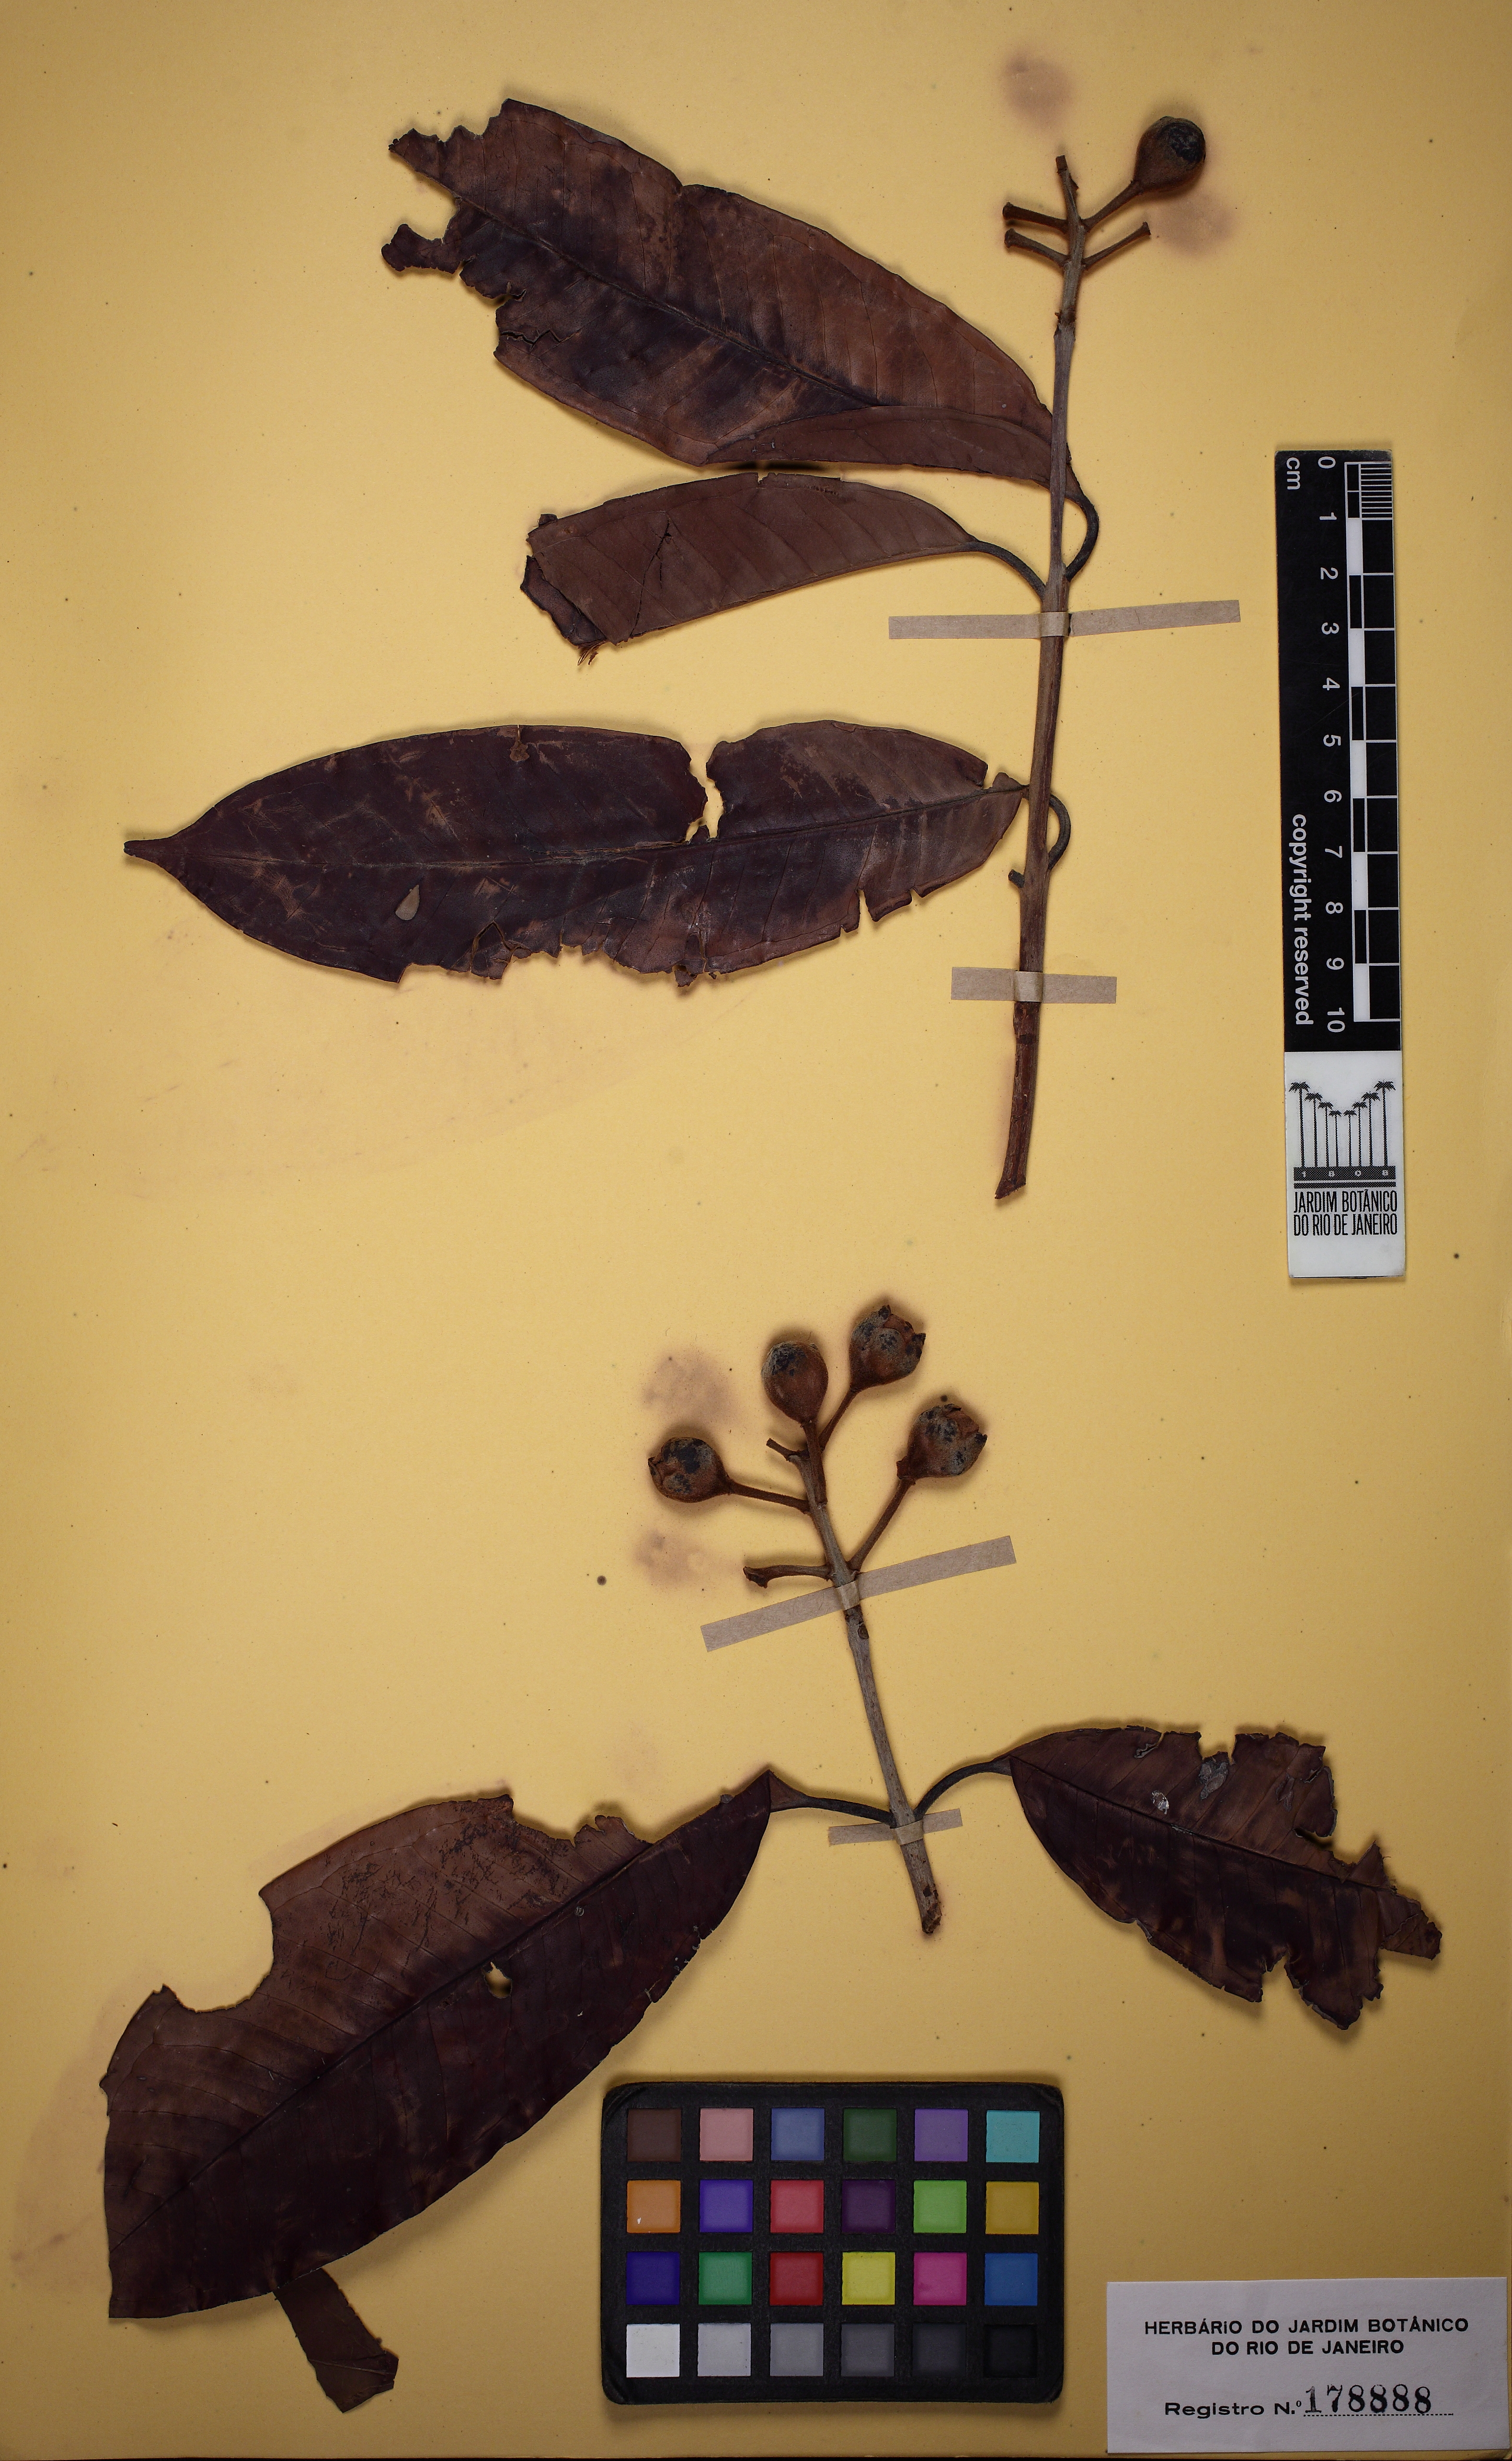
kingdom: Plantae
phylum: Tracheophyta
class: Magnoliopsida
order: Myrtales
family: Myrtaceae
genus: Calycorectes
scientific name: Calycorectes pohlianus
